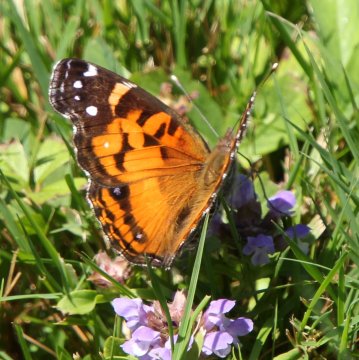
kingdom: Animalia
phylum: Arthropoda
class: Insecta
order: Lepidoptera
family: Nymphalidae
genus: Vanessa
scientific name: Vanessa virginiensis
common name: American Lady
